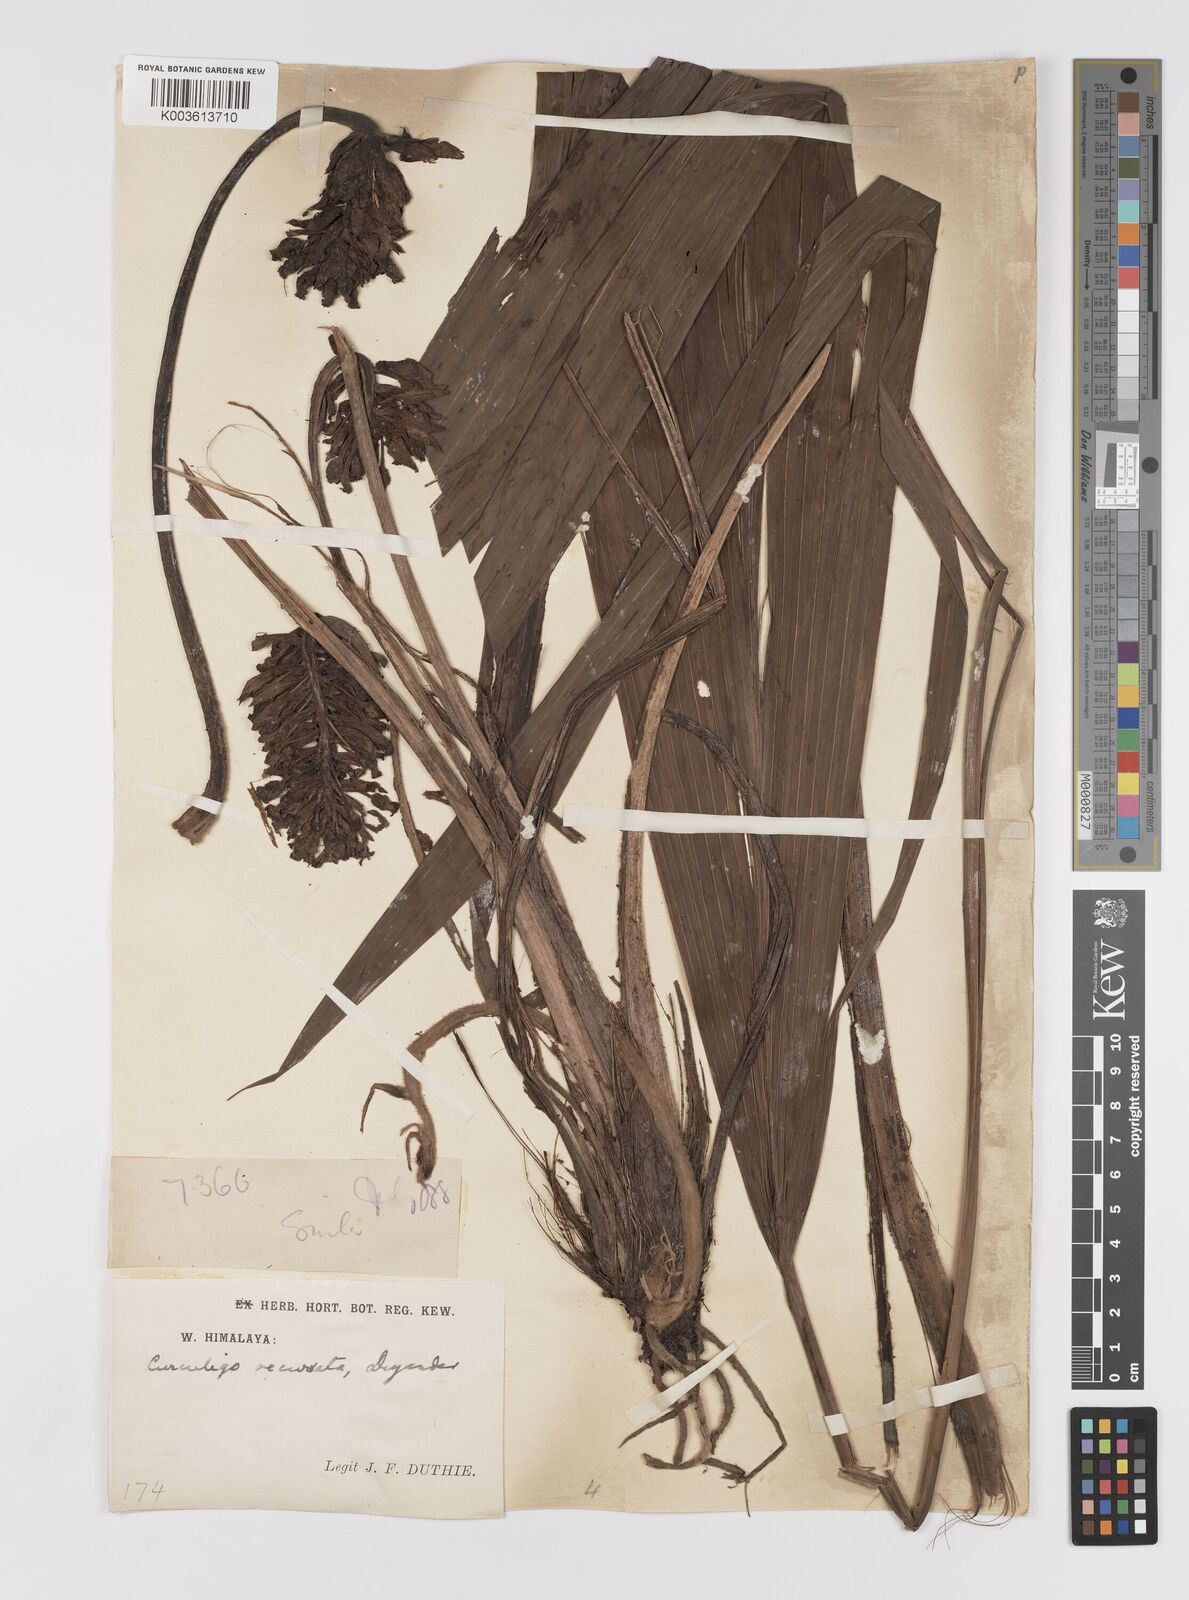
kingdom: Plantae
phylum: Tracheophyta
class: Liliopsida
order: Asparagales
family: Hypoxidaceae
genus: Curculigo
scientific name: Curculigo capitulata
